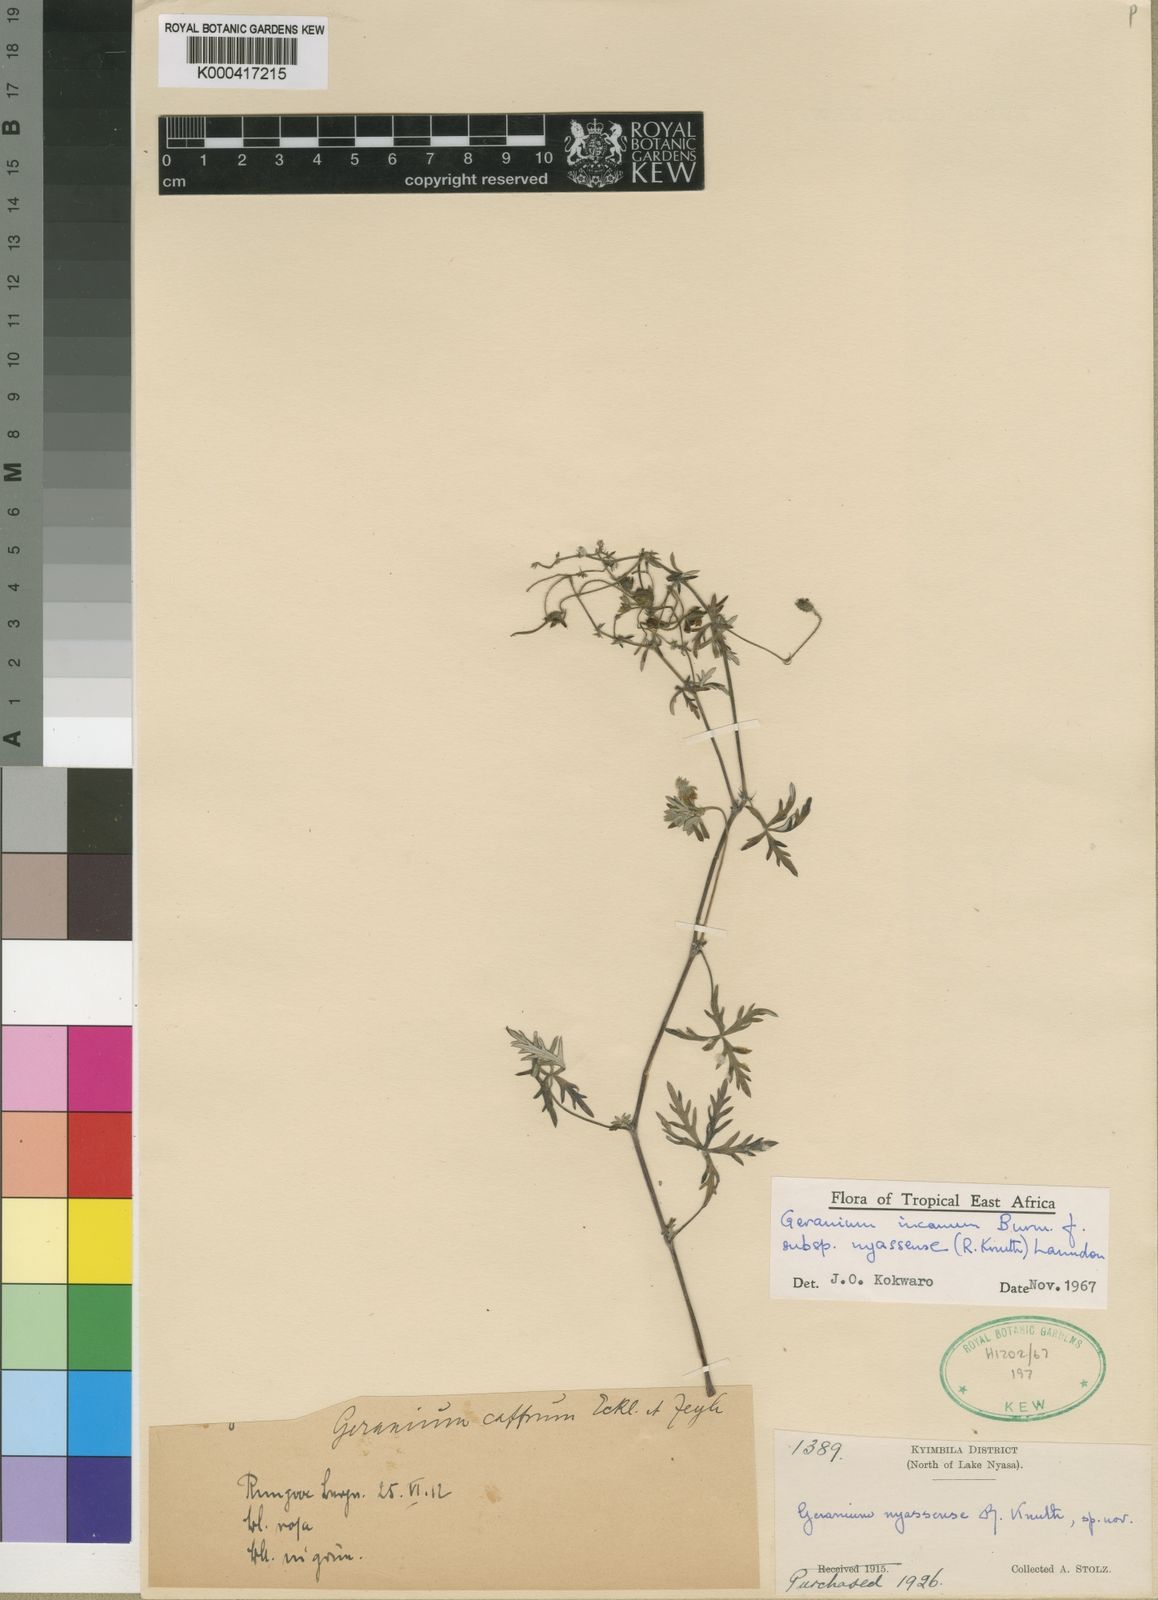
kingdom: Plantae
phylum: Tracheophyta
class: Magnoliopsida
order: Geraniales
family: Geraniaceae
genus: Geranium
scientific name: Geranium incanum
